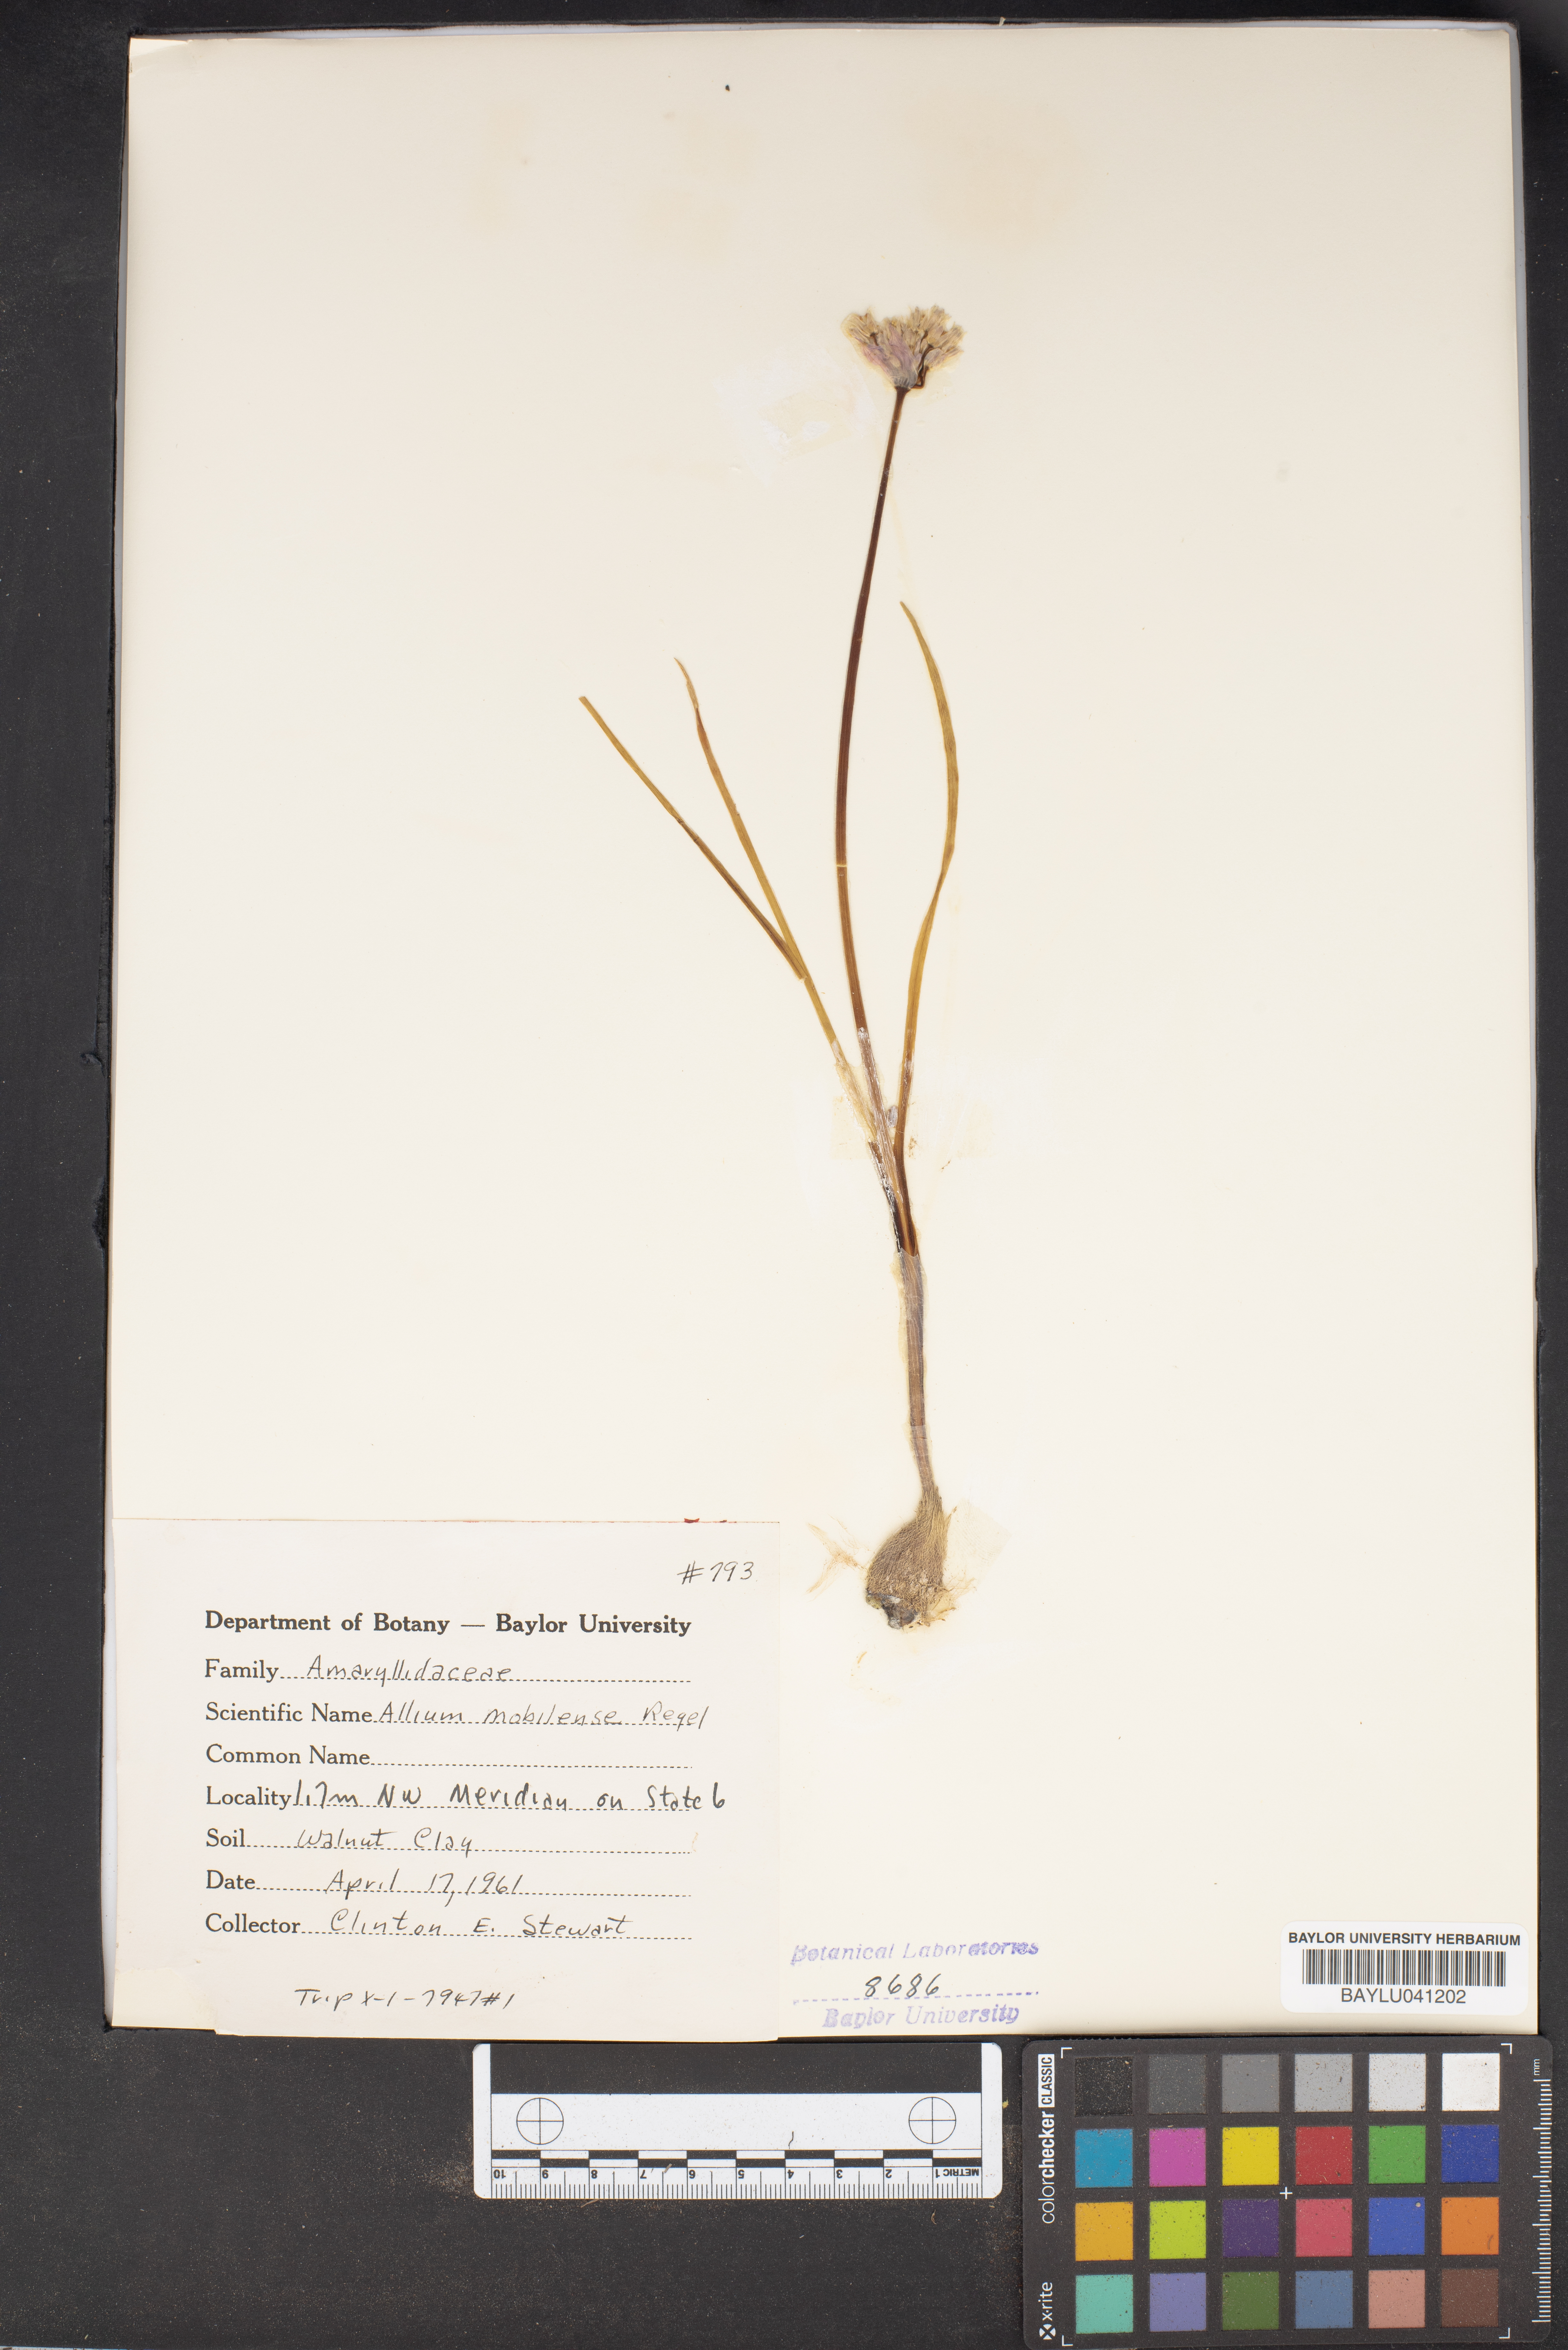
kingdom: Plantae
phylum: Tracheophyta
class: Liliopsida
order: Asparagales
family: Amaryllidaceae
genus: Allium
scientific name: Allium canadense
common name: Meadow garlic
